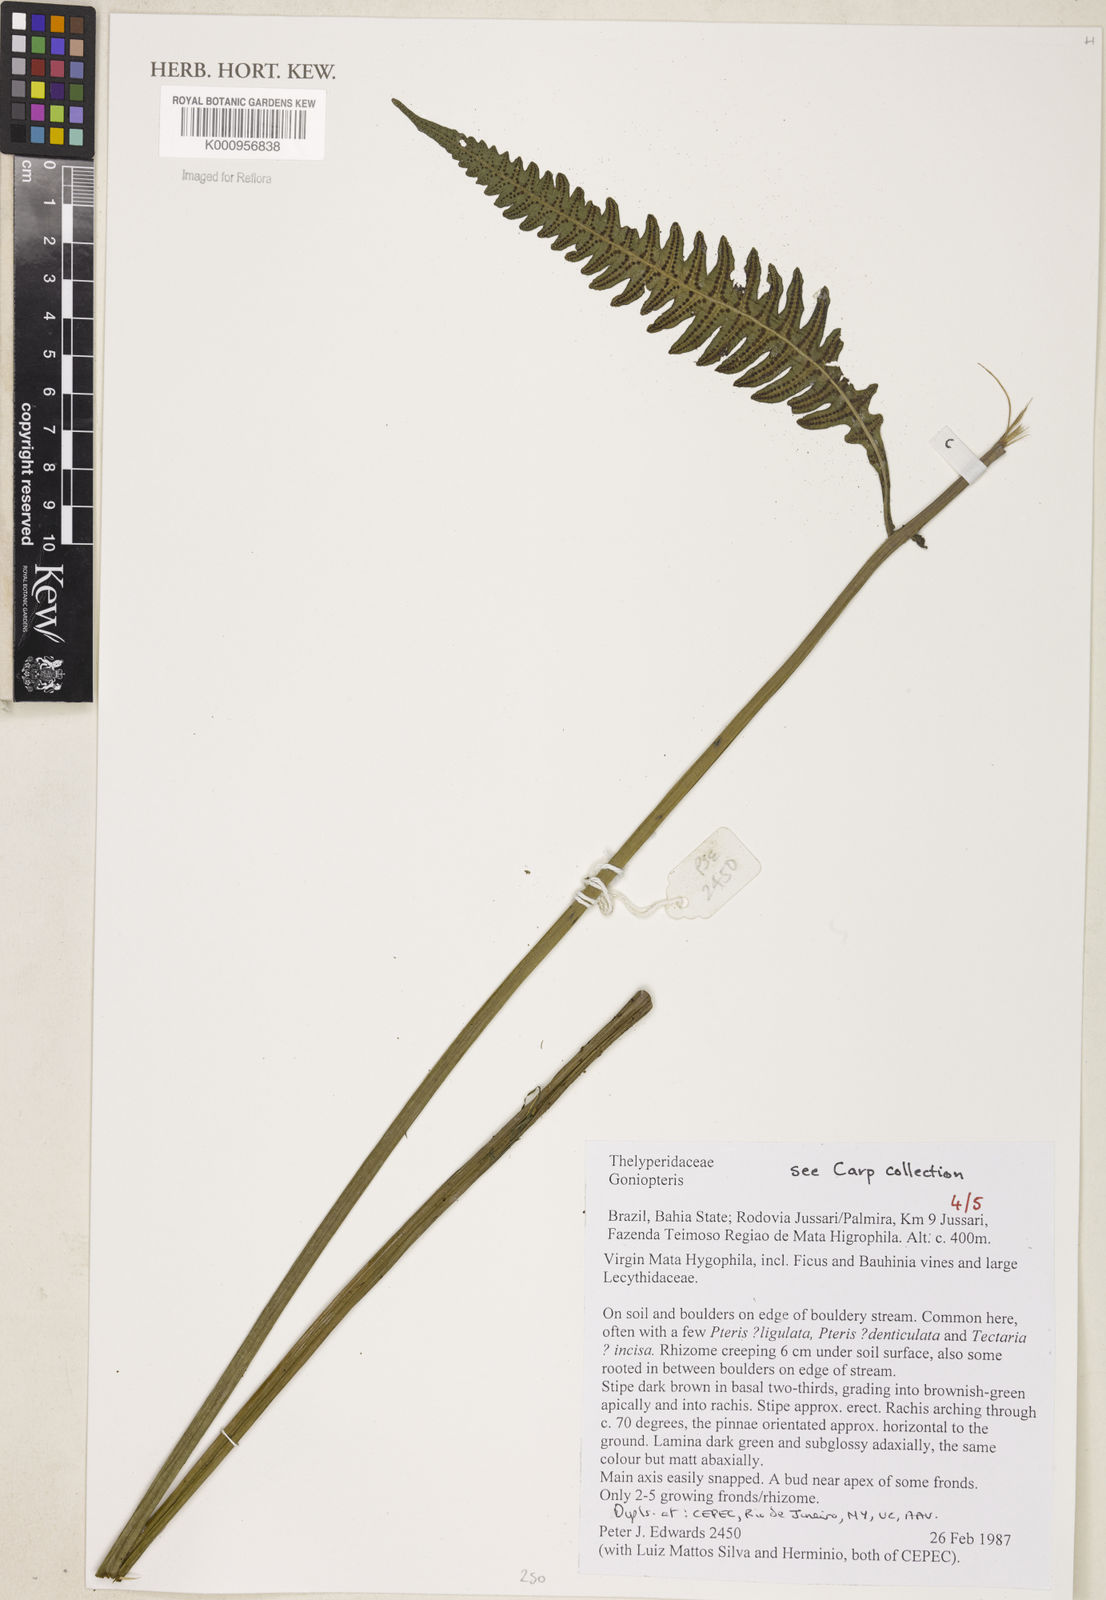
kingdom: Plantae
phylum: Tracheophyta
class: Polypodiopsida
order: Polypodiales
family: Thelypteridaceae
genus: Goniopteris
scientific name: Goniopteris smithii
